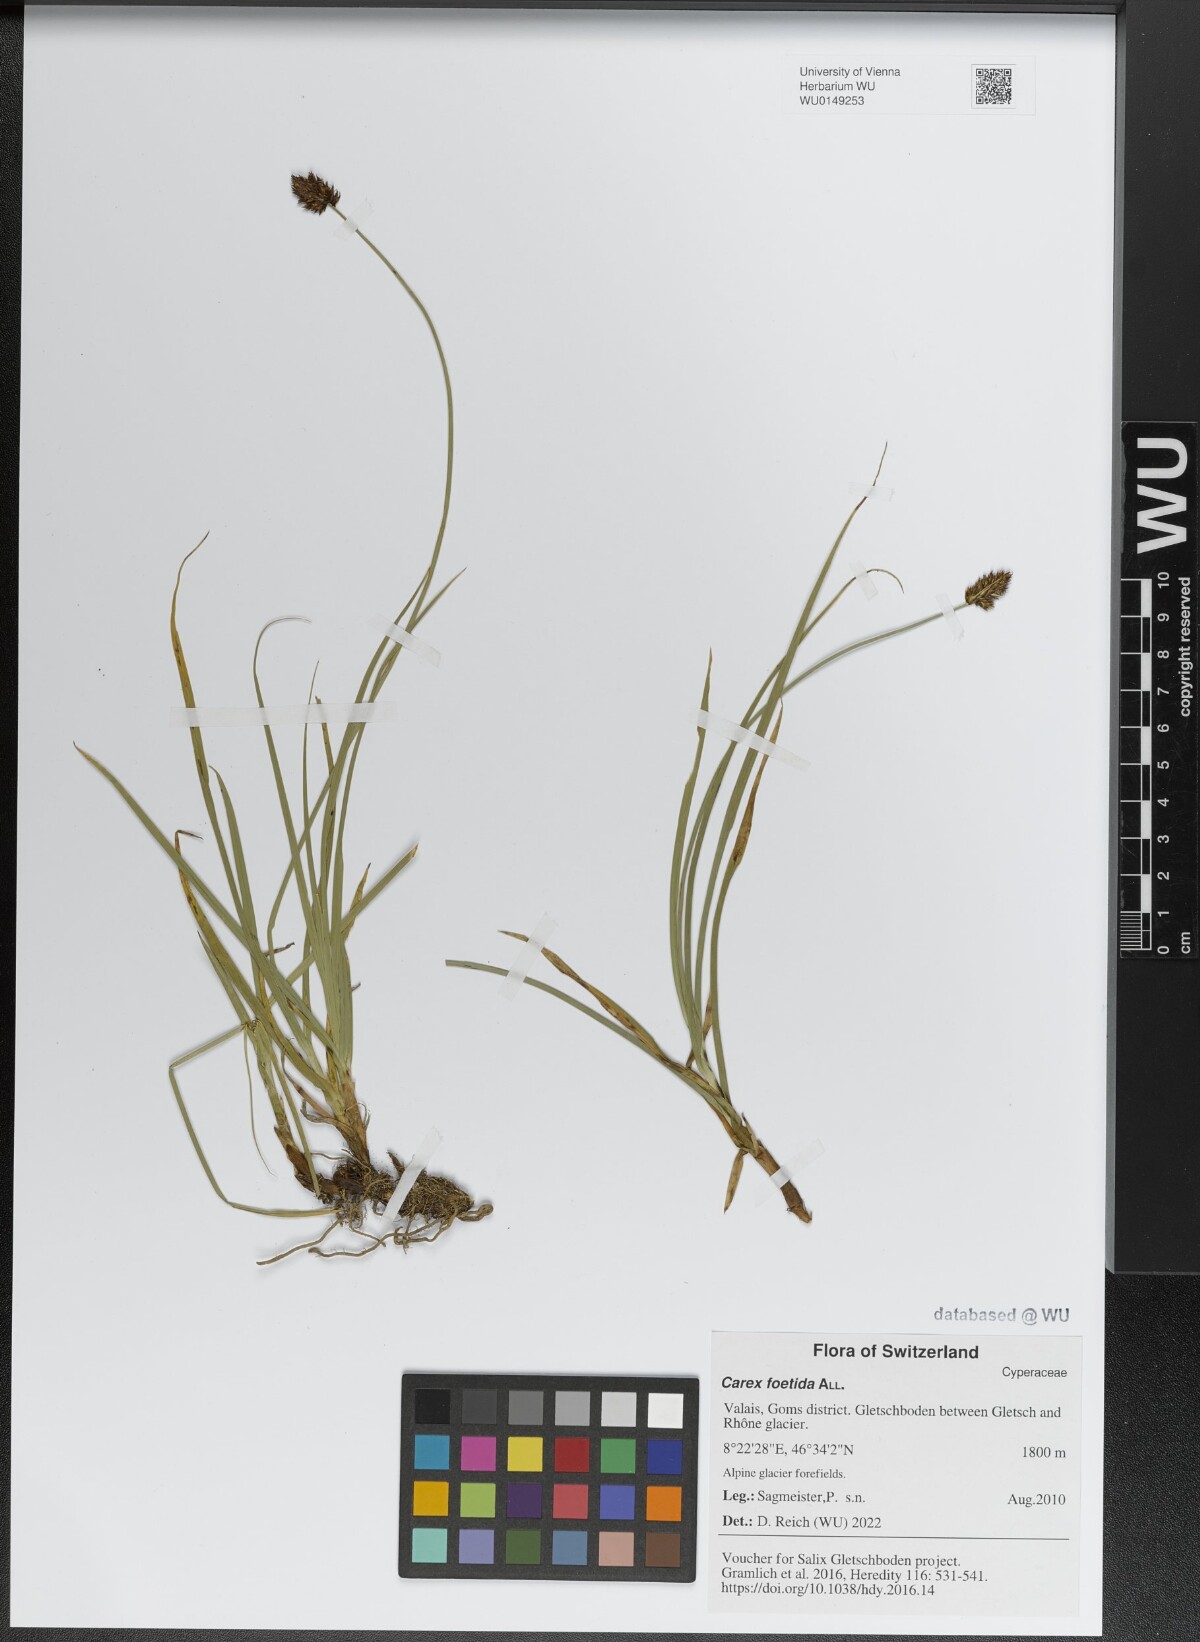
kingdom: Plantae
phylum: Tracheophyta
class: Liliopsida
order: Poales
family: Cyperaceae
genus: Carex
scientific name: Carex foetida
